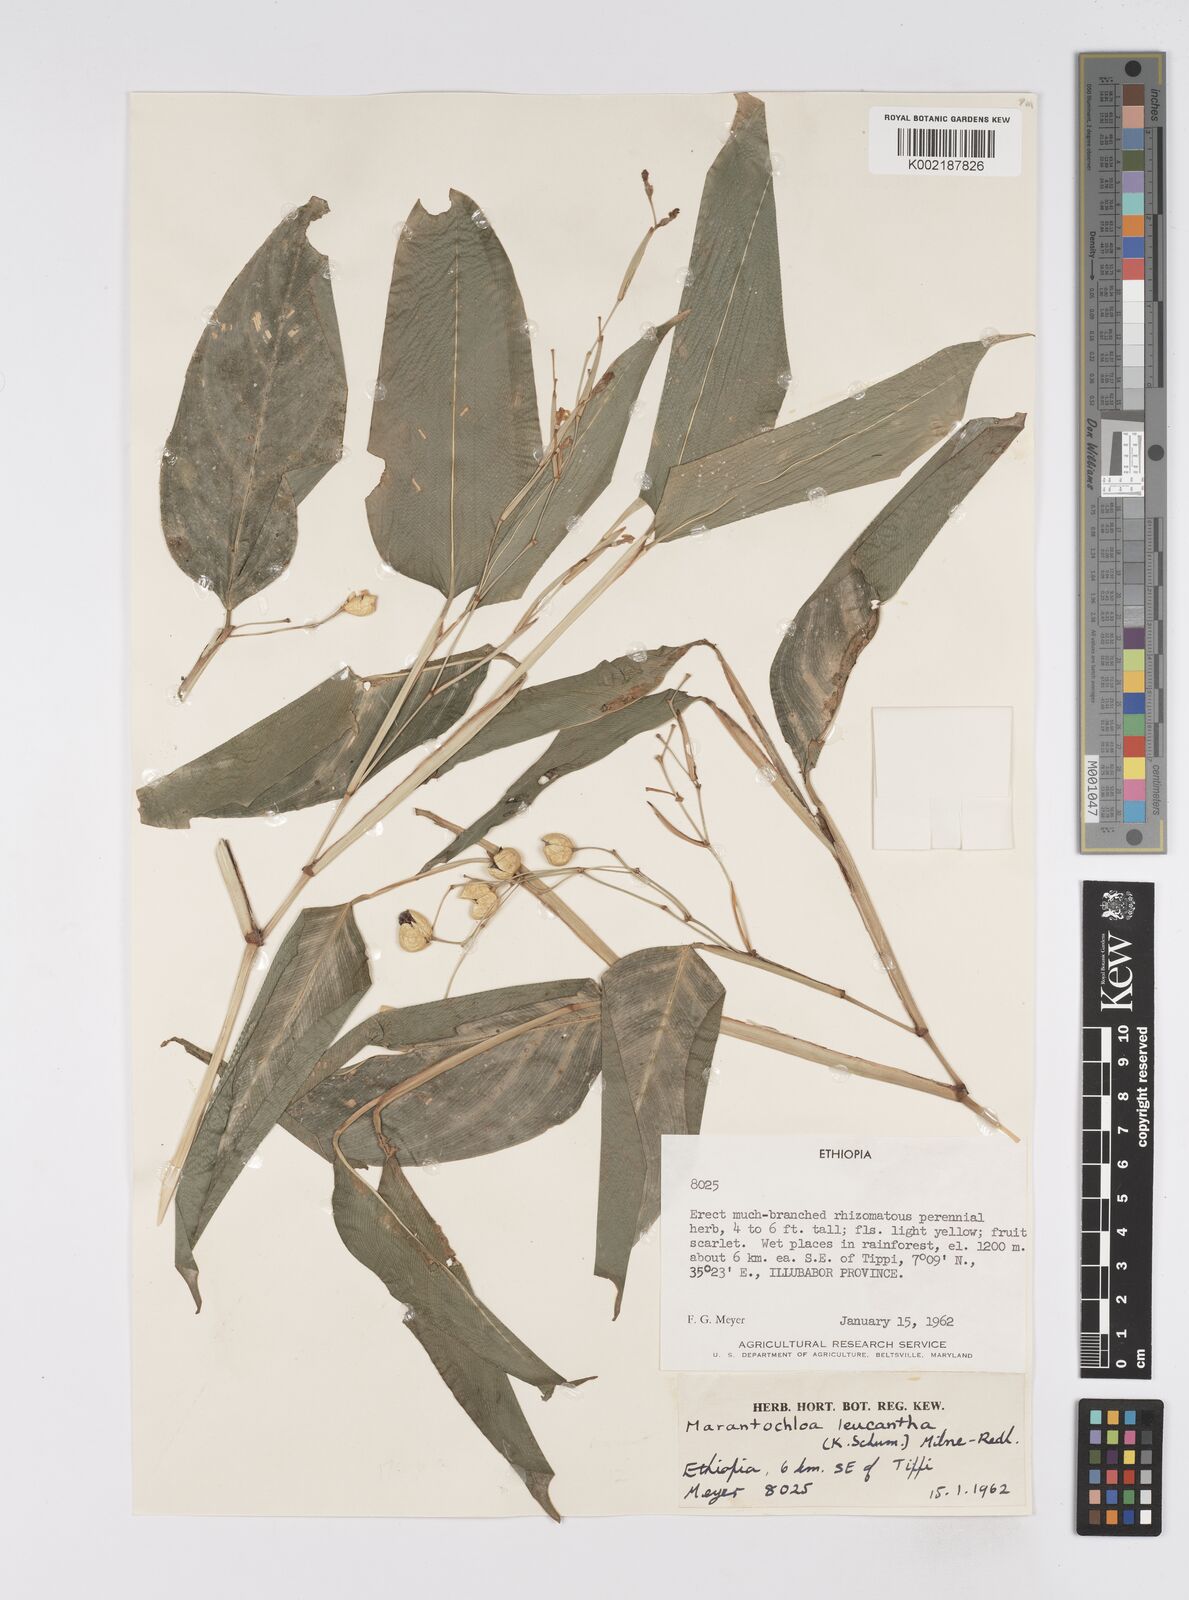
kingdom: Plantae
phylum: Tracheophyta
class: Liliopsida
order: Zingiberales
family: Marantaceae
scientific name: Marantaceae
